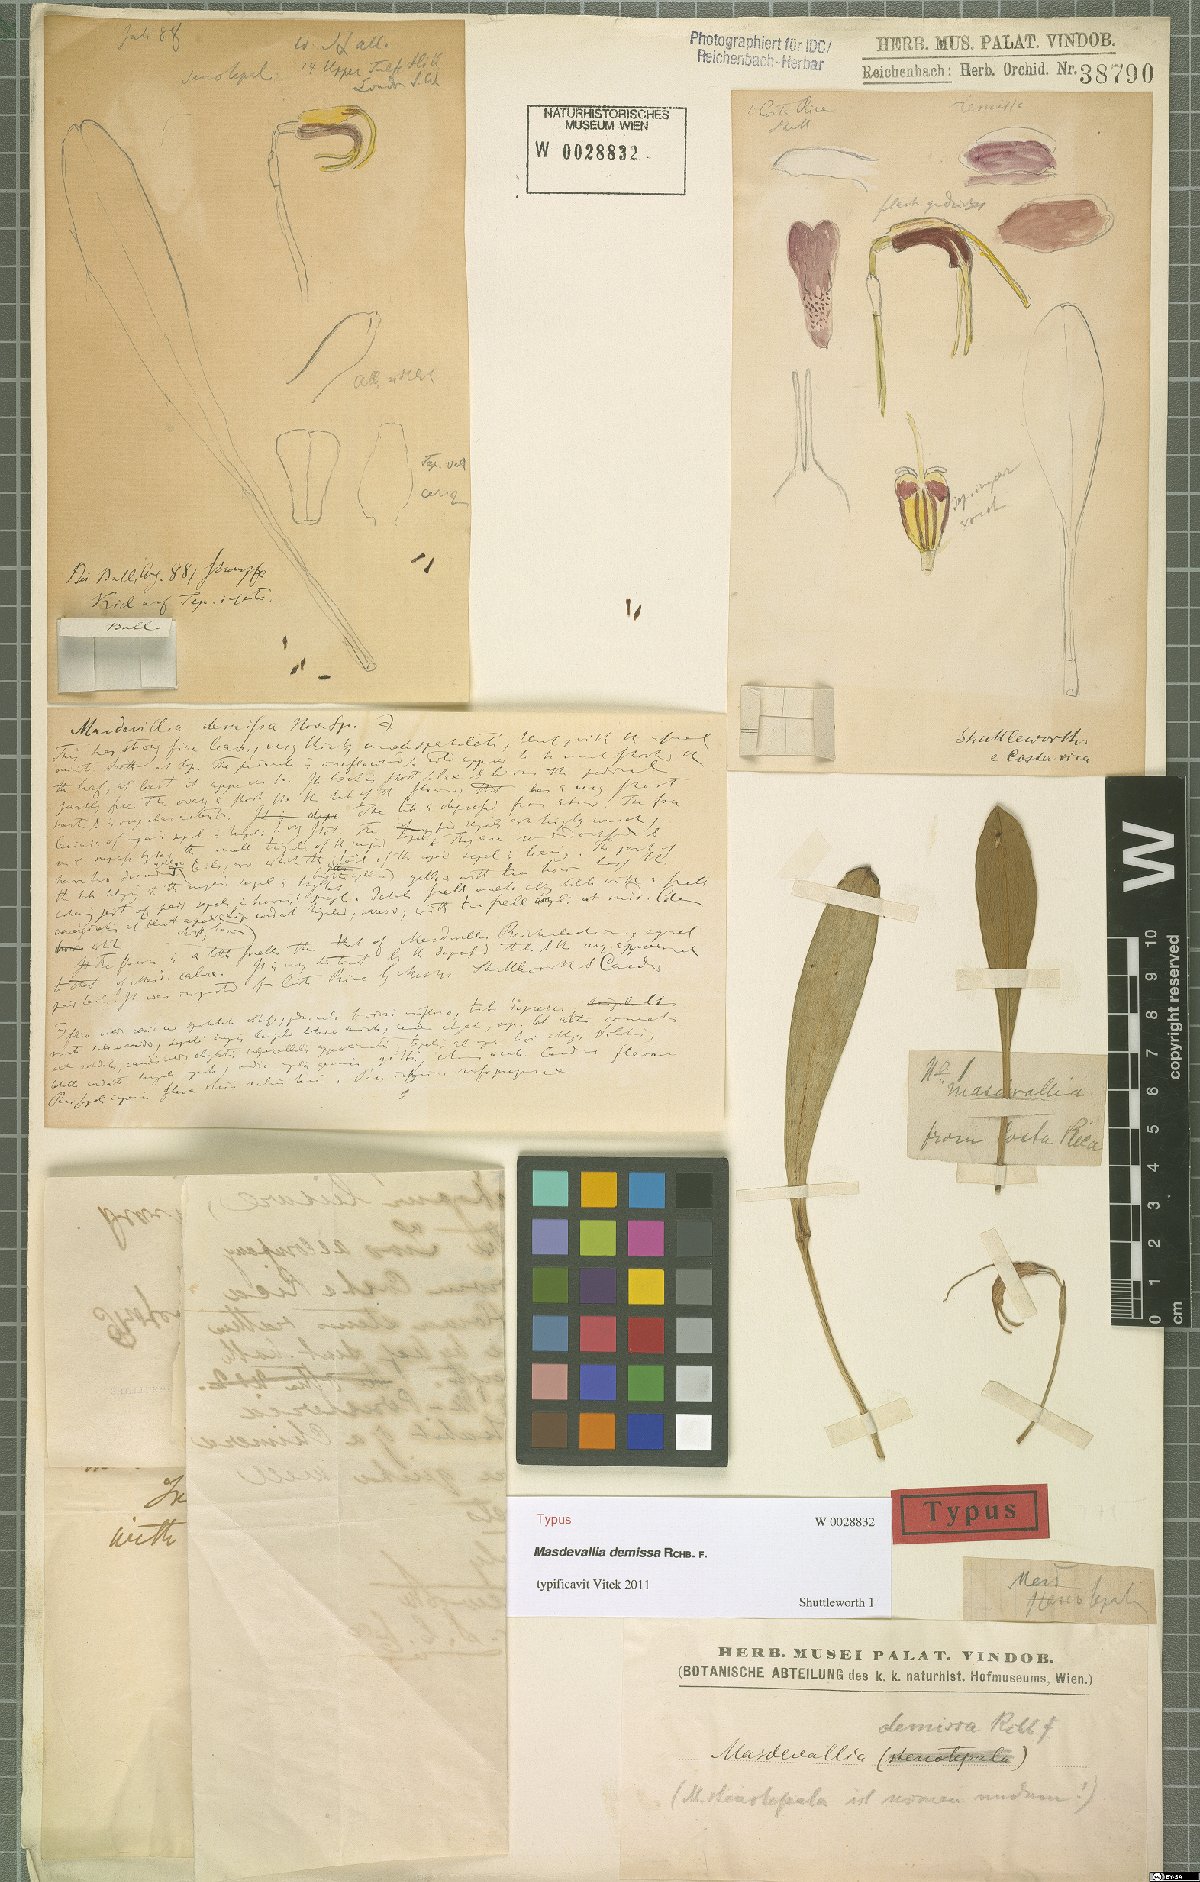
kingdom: Plantae
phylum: Tracheophyta
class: Liliopsida
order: Asparagales
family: Orchidaceae
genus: Masdevallia
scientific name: Masdevallia demissa
